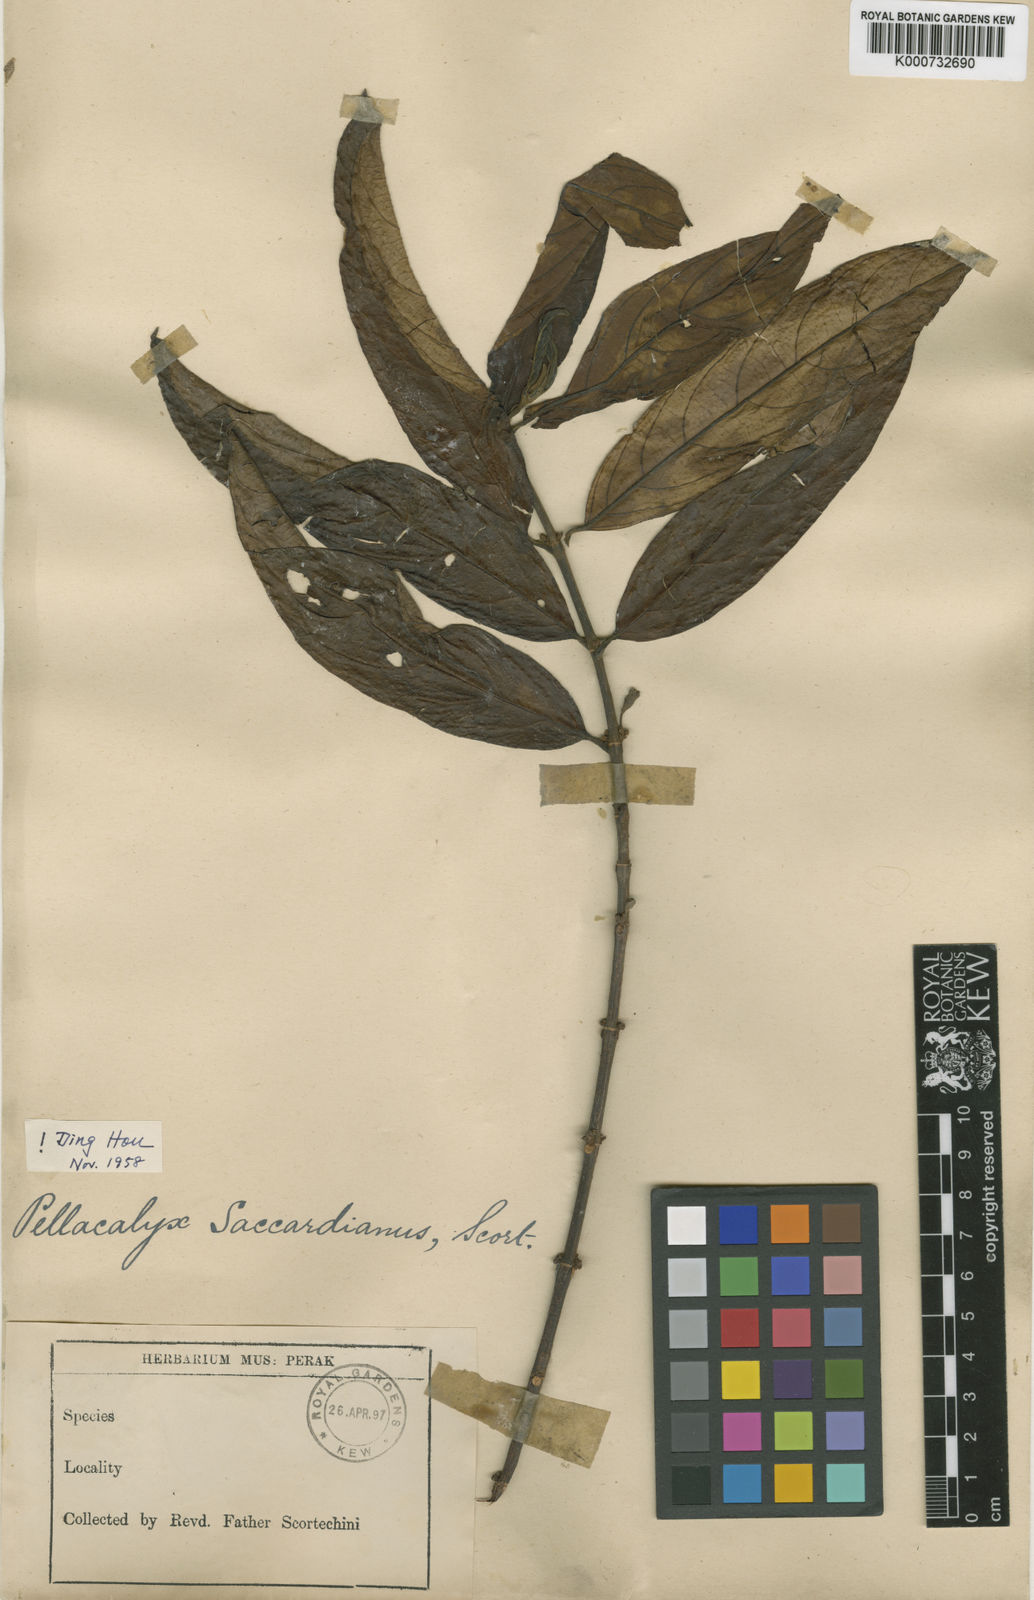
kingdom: Plantae
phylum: Tracheophyta
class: Magnoliopsida
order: Malpighiales
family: Rhizophoraceae
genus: Pellacalyx
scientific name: Pellacalyx saccardianus
